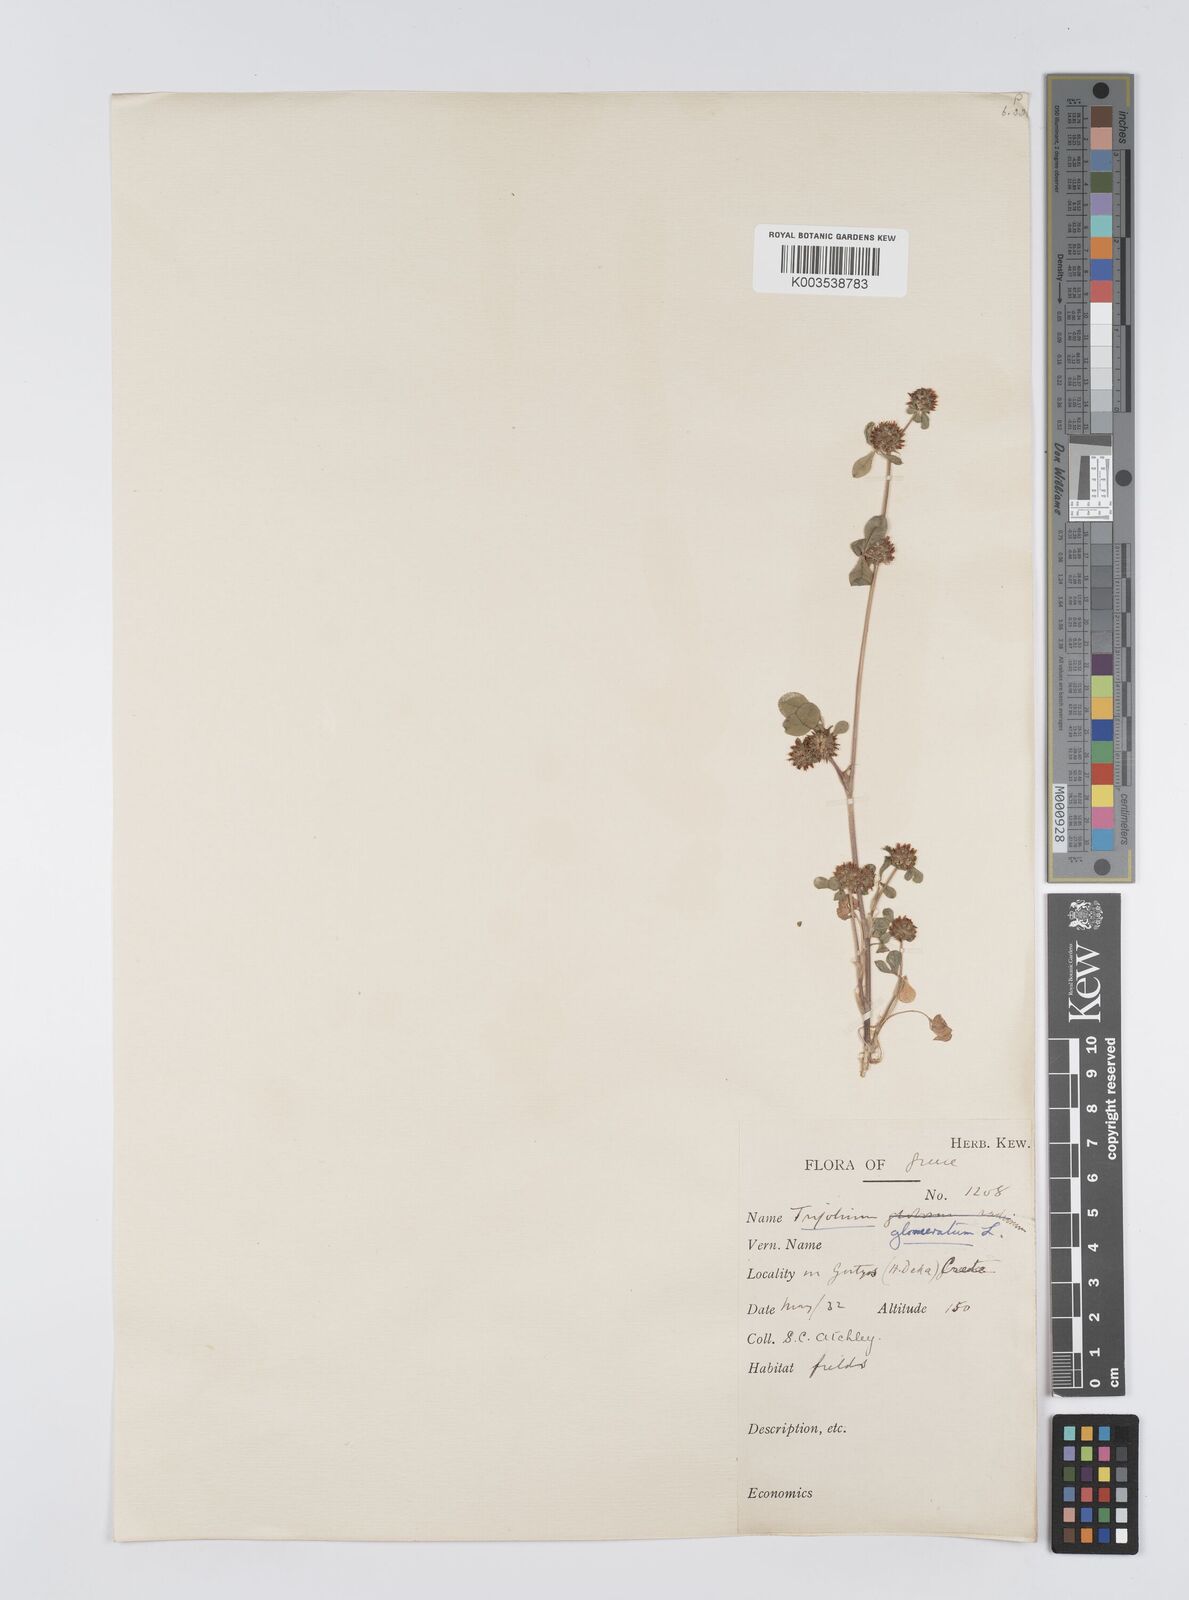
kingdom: Plantae
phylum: Tracheophyta
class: Magnoliopsida
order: Fabales
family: Fabaceae
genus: Trifolium
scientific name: Trifolium glomeratum
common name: Clustered clover
